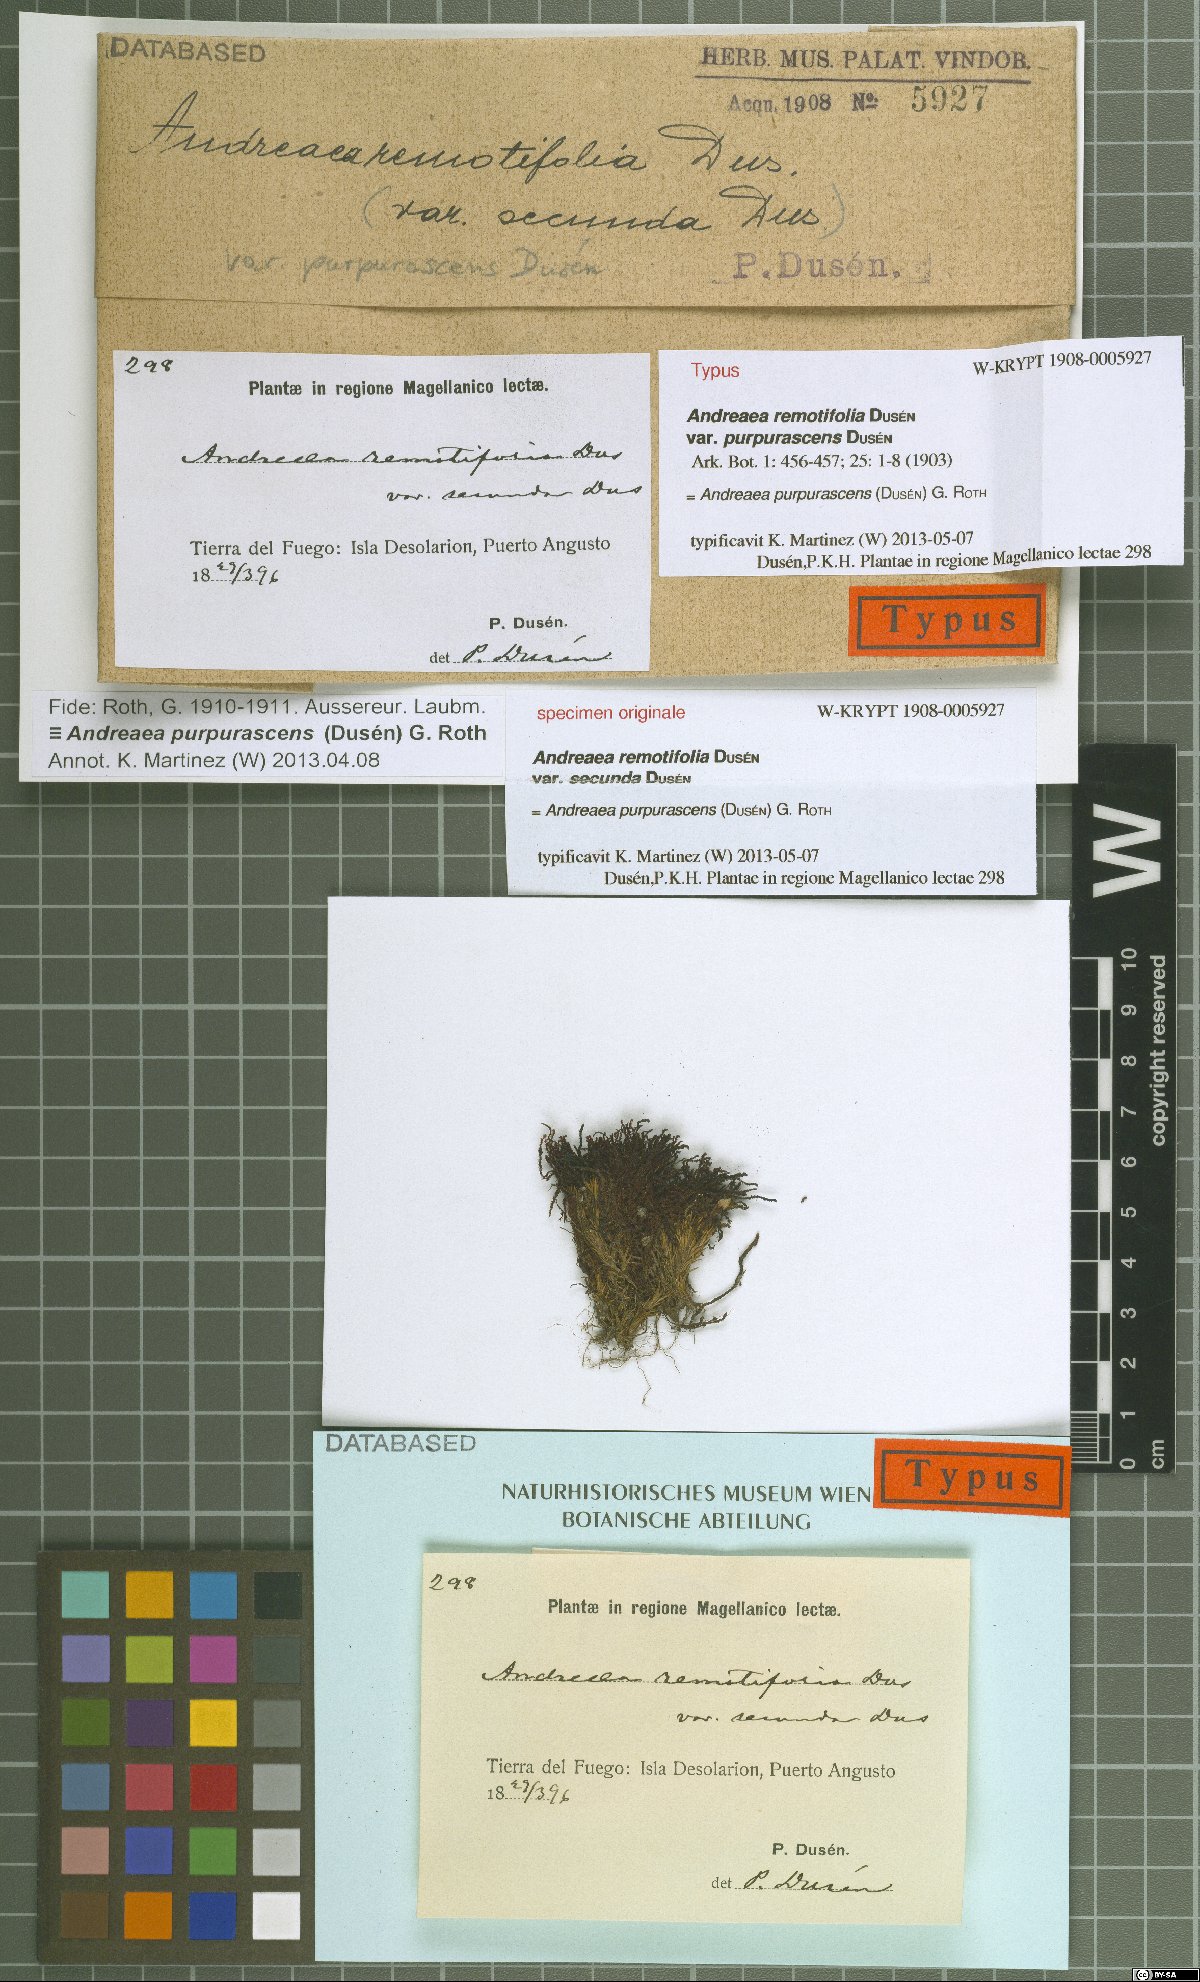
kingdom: Plantae
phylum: Bryophyta
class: Andreaeopsida
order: Andreaeales
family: Andreaeaceae
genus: Andreaea
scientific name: Andreaea purpurascens
